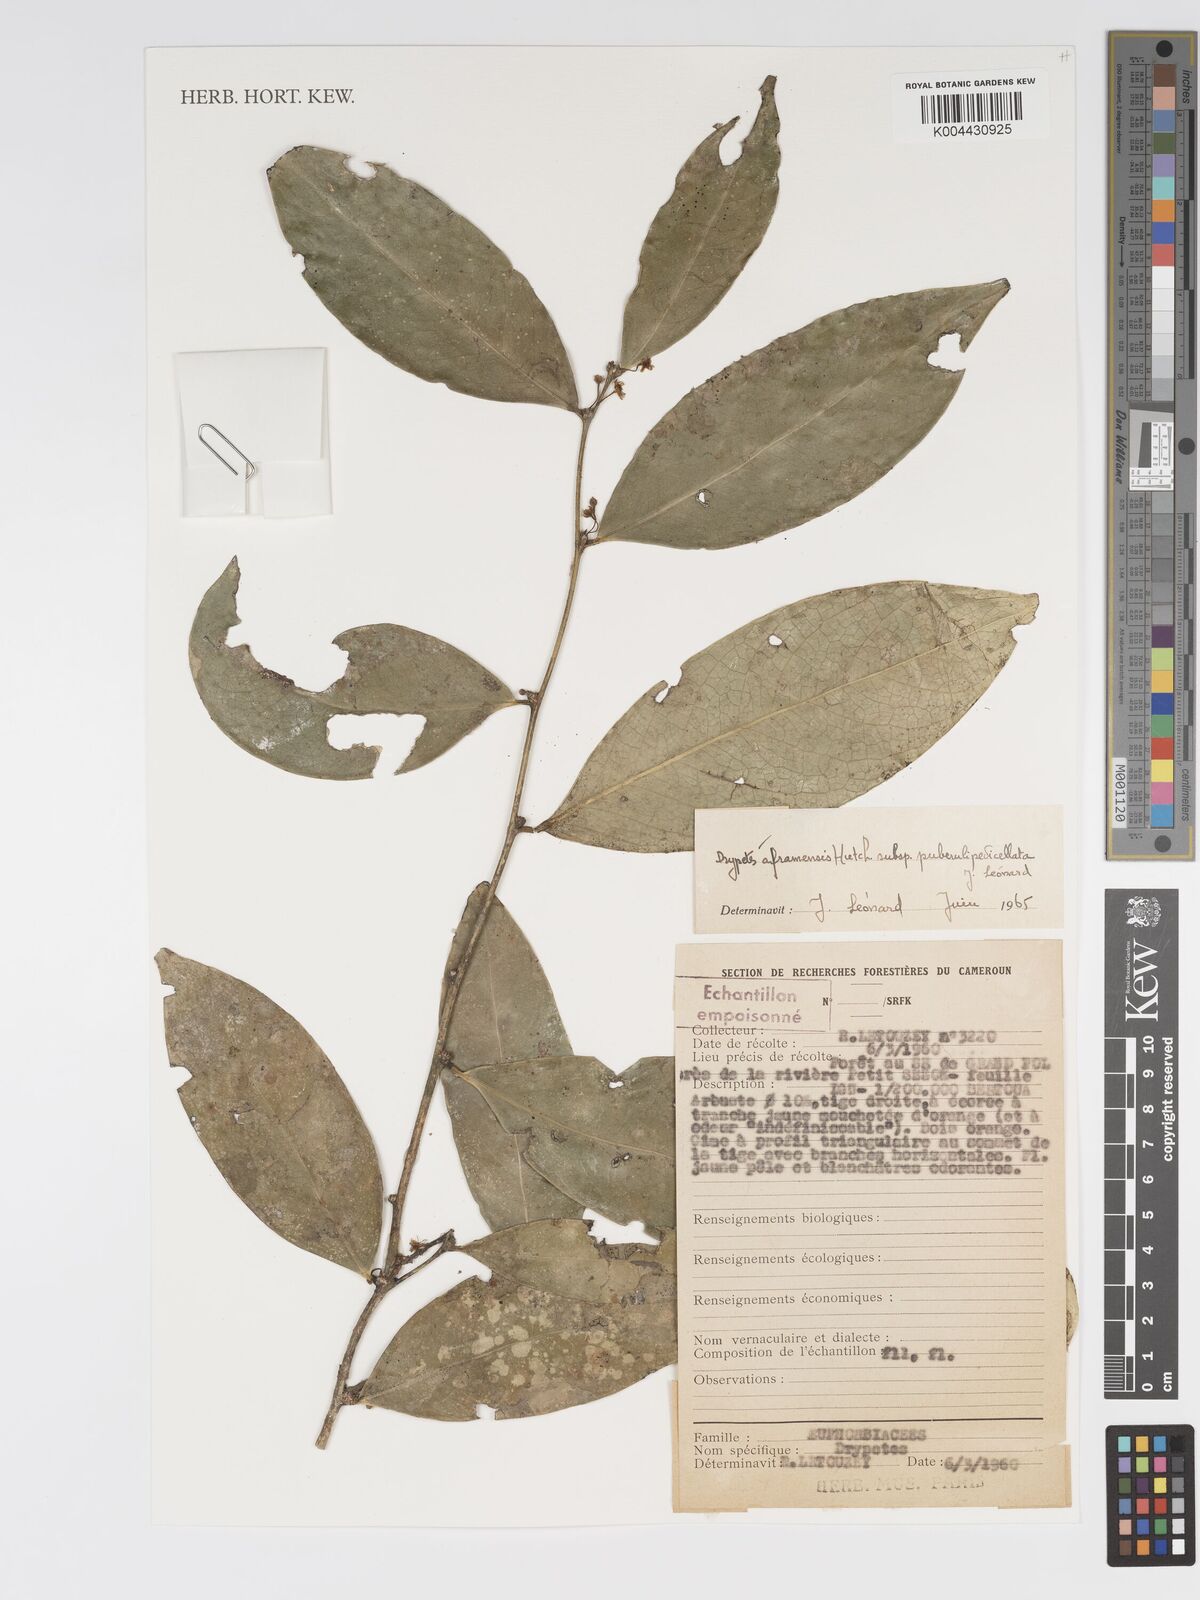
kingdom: Plantae
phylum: Tracheophyta
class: Magnoliopsida
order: Malpighiales
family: Putranjivaceae
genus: Drypetes
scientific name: Drypetes aframensis
